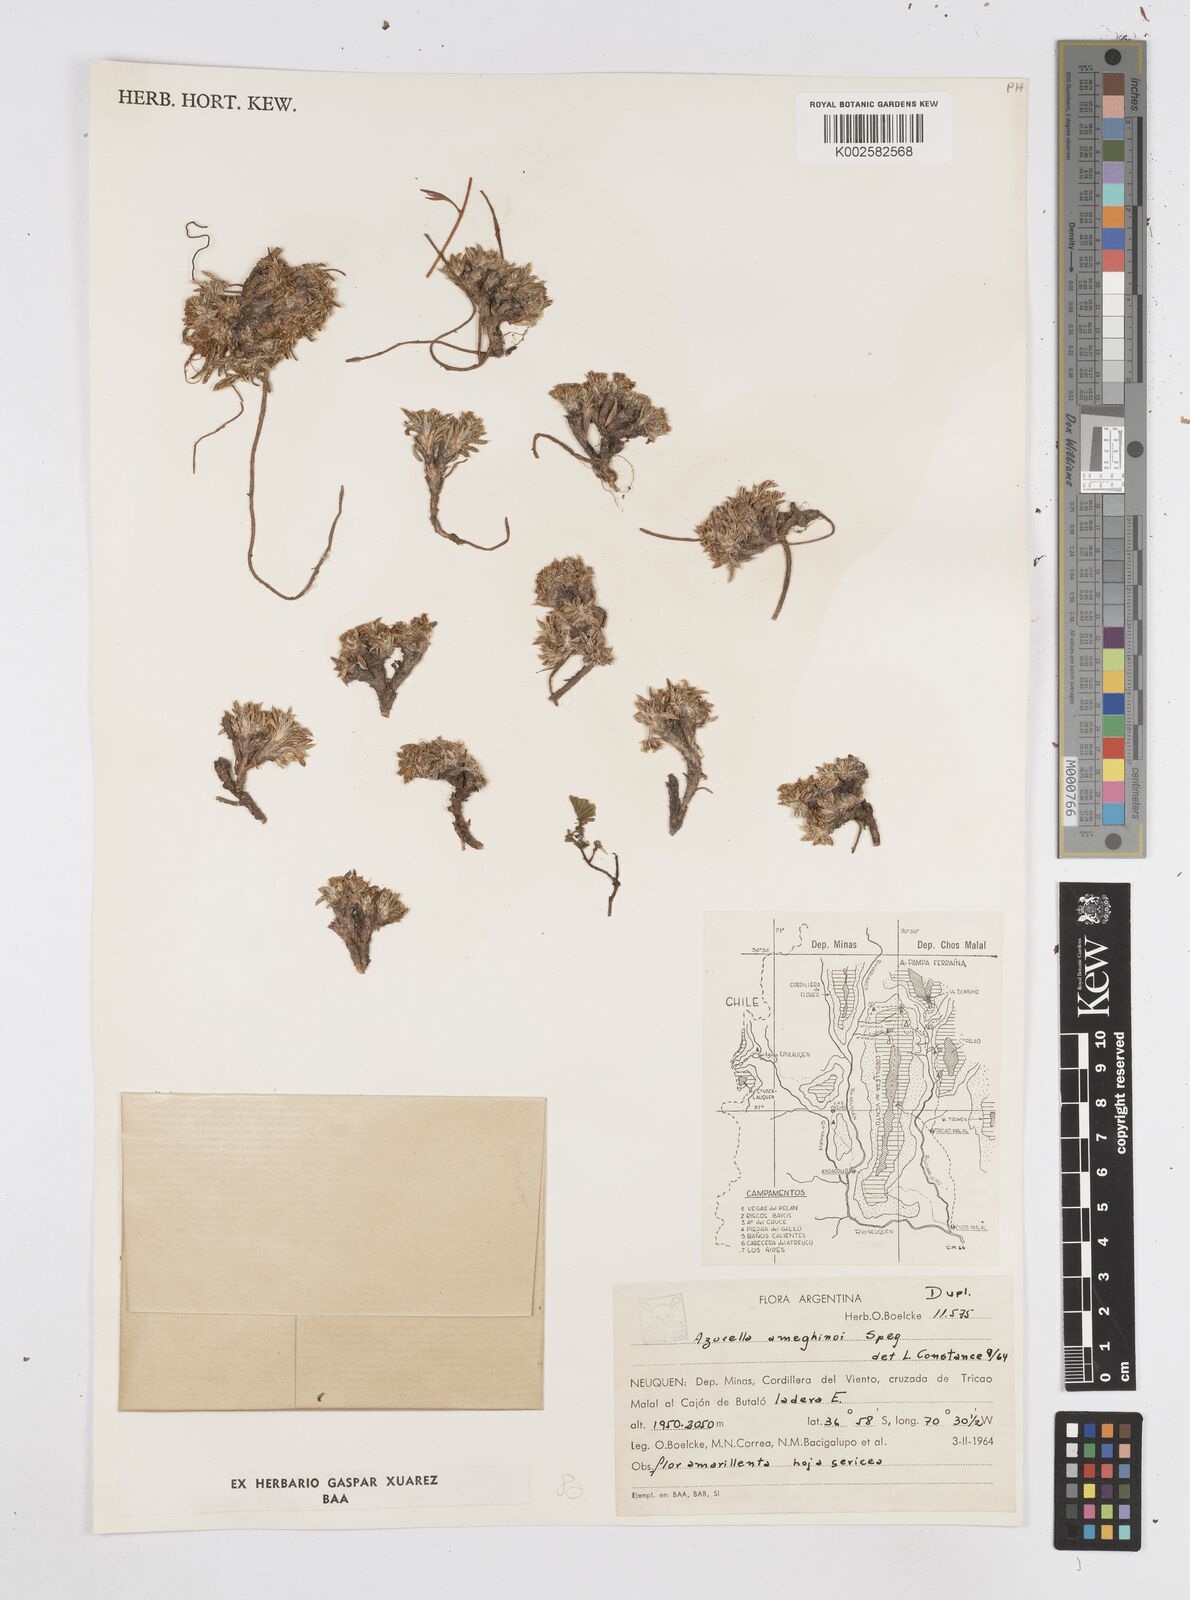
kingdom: Plantae
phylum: Tracheophyta
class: Magnoliopsida
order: Apiales
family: Apiaceae
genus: Azorella
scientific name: Azorella ameghinoi
